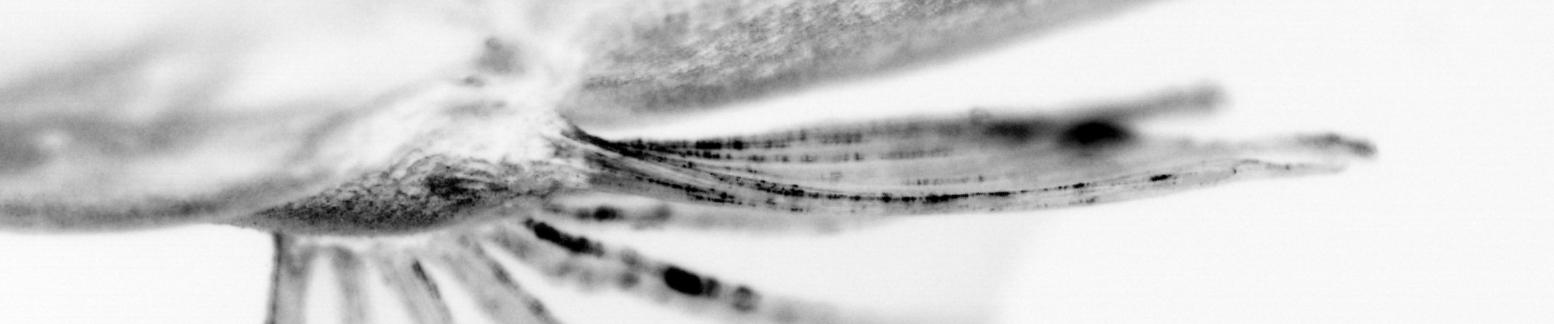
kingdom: Animalia
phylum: Chordata
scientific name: Chordata
